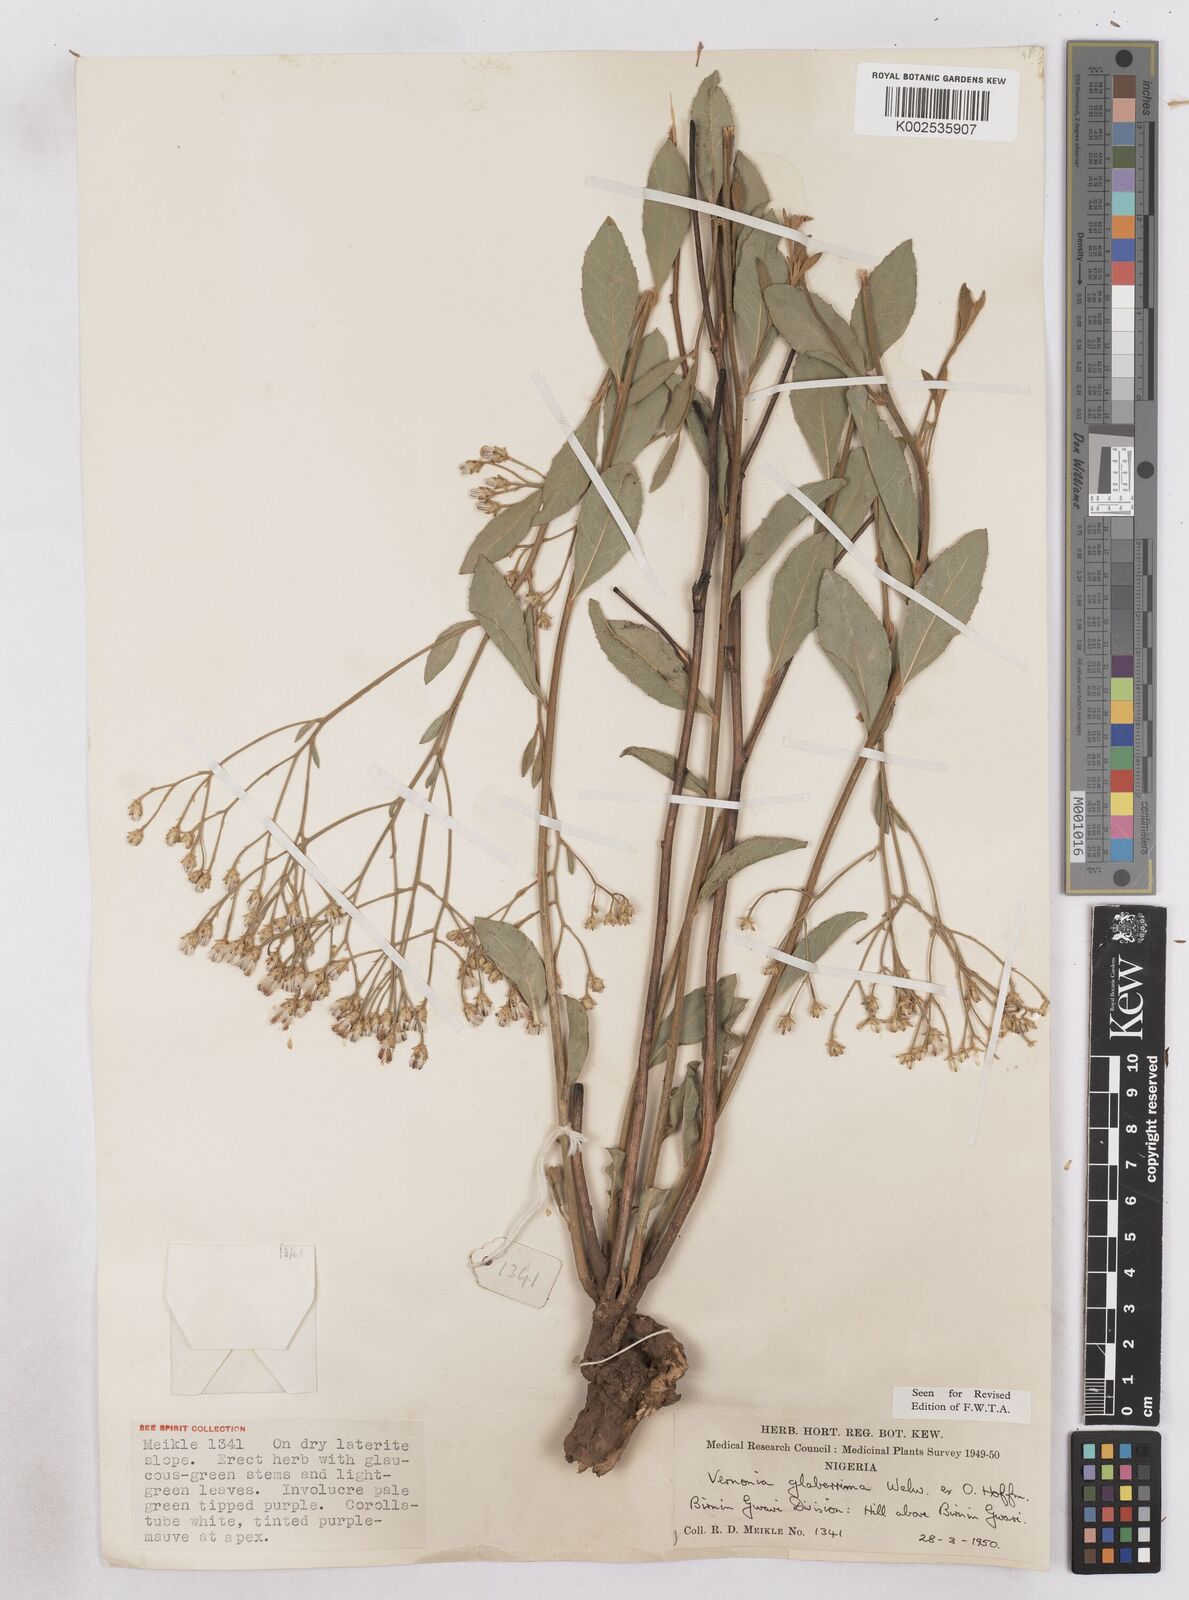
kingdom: Plantae
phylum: Tracheophyta
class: Magnoliopsida
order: Asterales
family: Asteraceae
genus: Gymnanthemum
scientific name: Gymnanthemum glaberrimum
